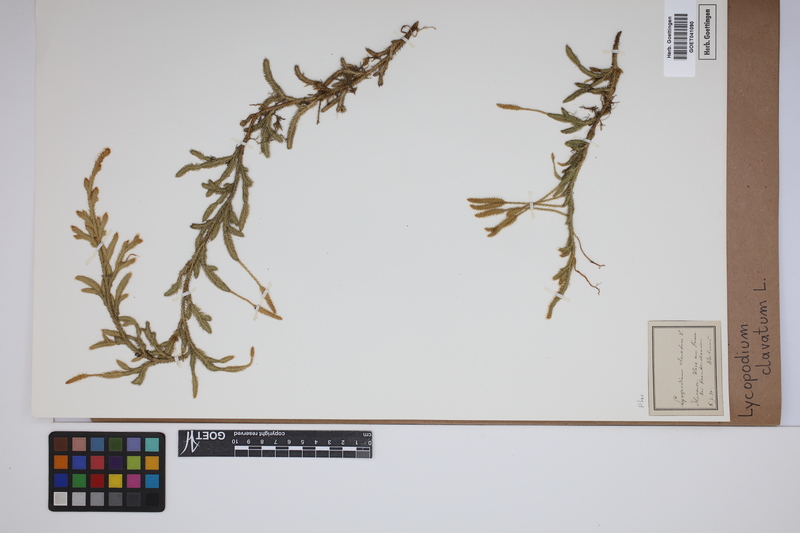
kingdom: Plantae
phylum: Tracheophyta
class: Lycopodiopsida
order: Lycopodiales
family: Lycopodiaceae
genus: Lycopodium
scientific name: Lycopodium clavatum
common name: Stag's-horn clubmoss
